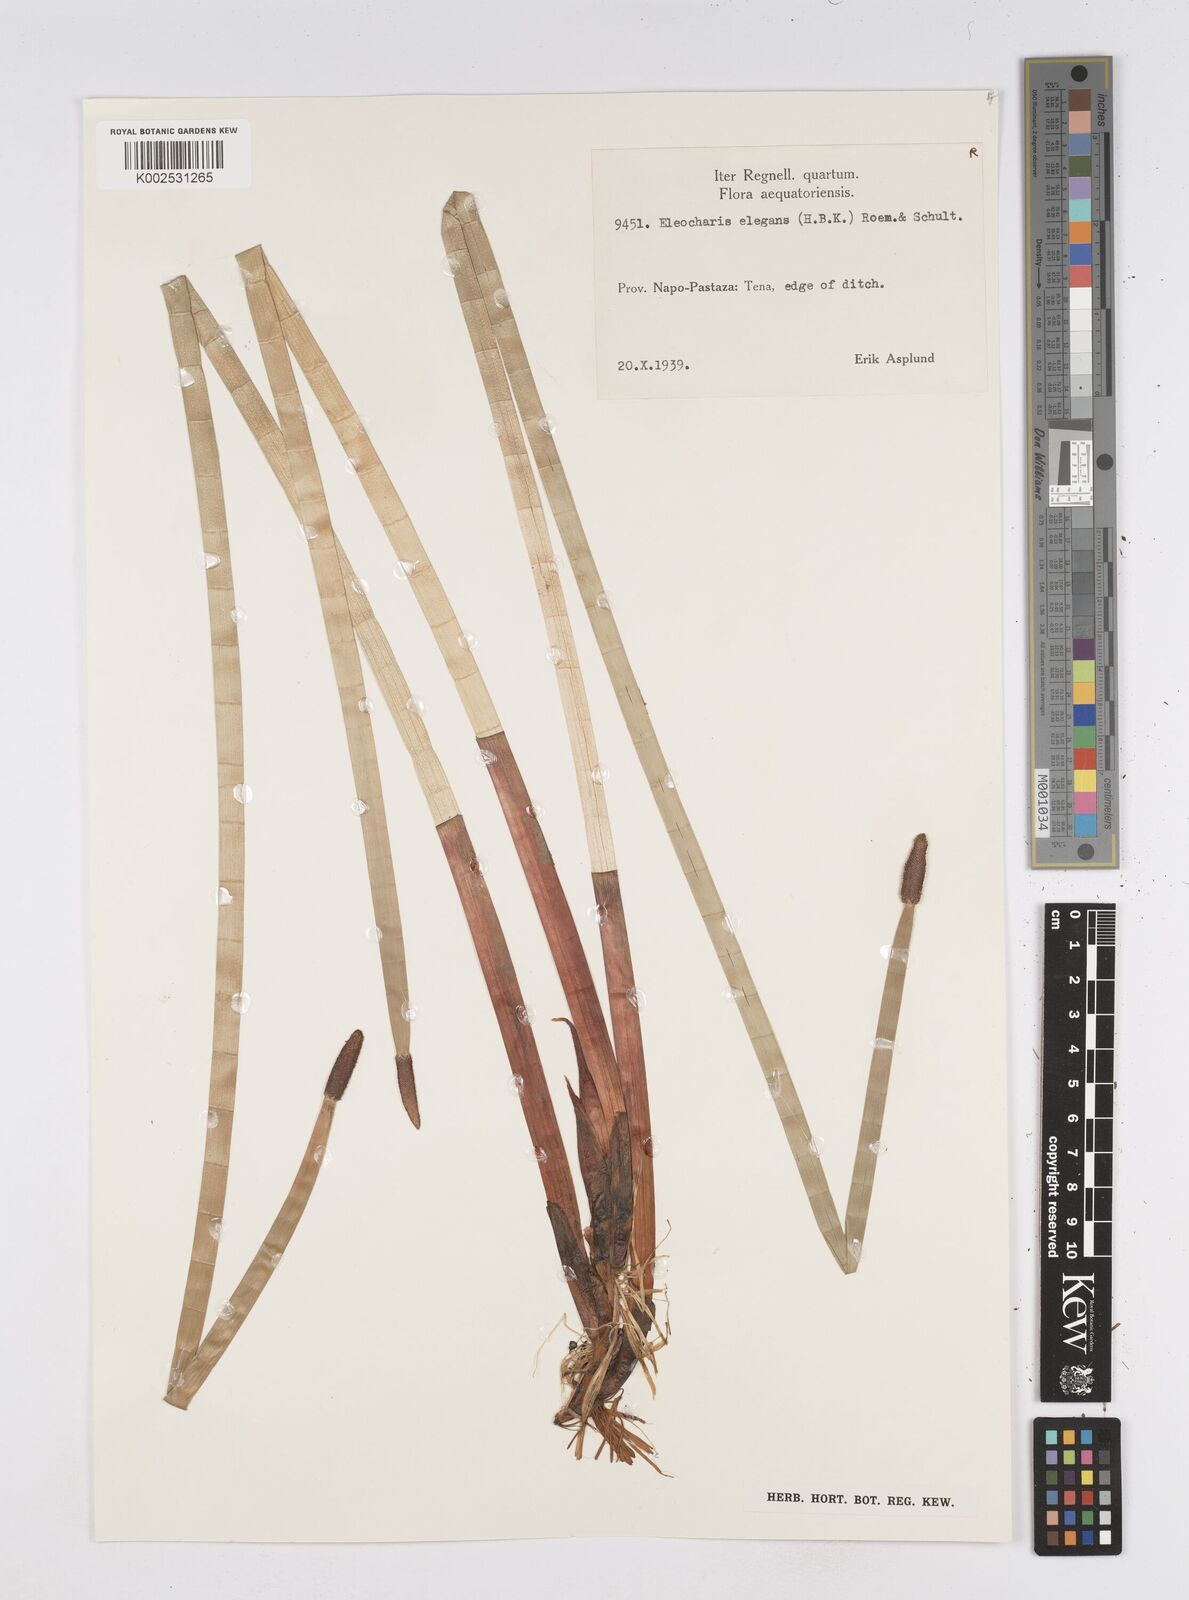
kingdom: Plantae
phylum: Tracheophyta
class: Liliopsida
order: Poales
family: Cyperaceae
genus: Eleocharis
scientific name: Eleocharis elegans
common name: Elegant spike-rush
